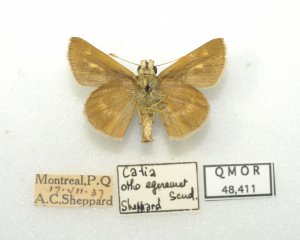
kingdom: Animalia
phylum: Arthropoda
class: Insecta
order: Lepidoptera
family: Hesperiidae
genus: Polites
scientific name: Polites egeremet
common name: Northern Broken-Dash
